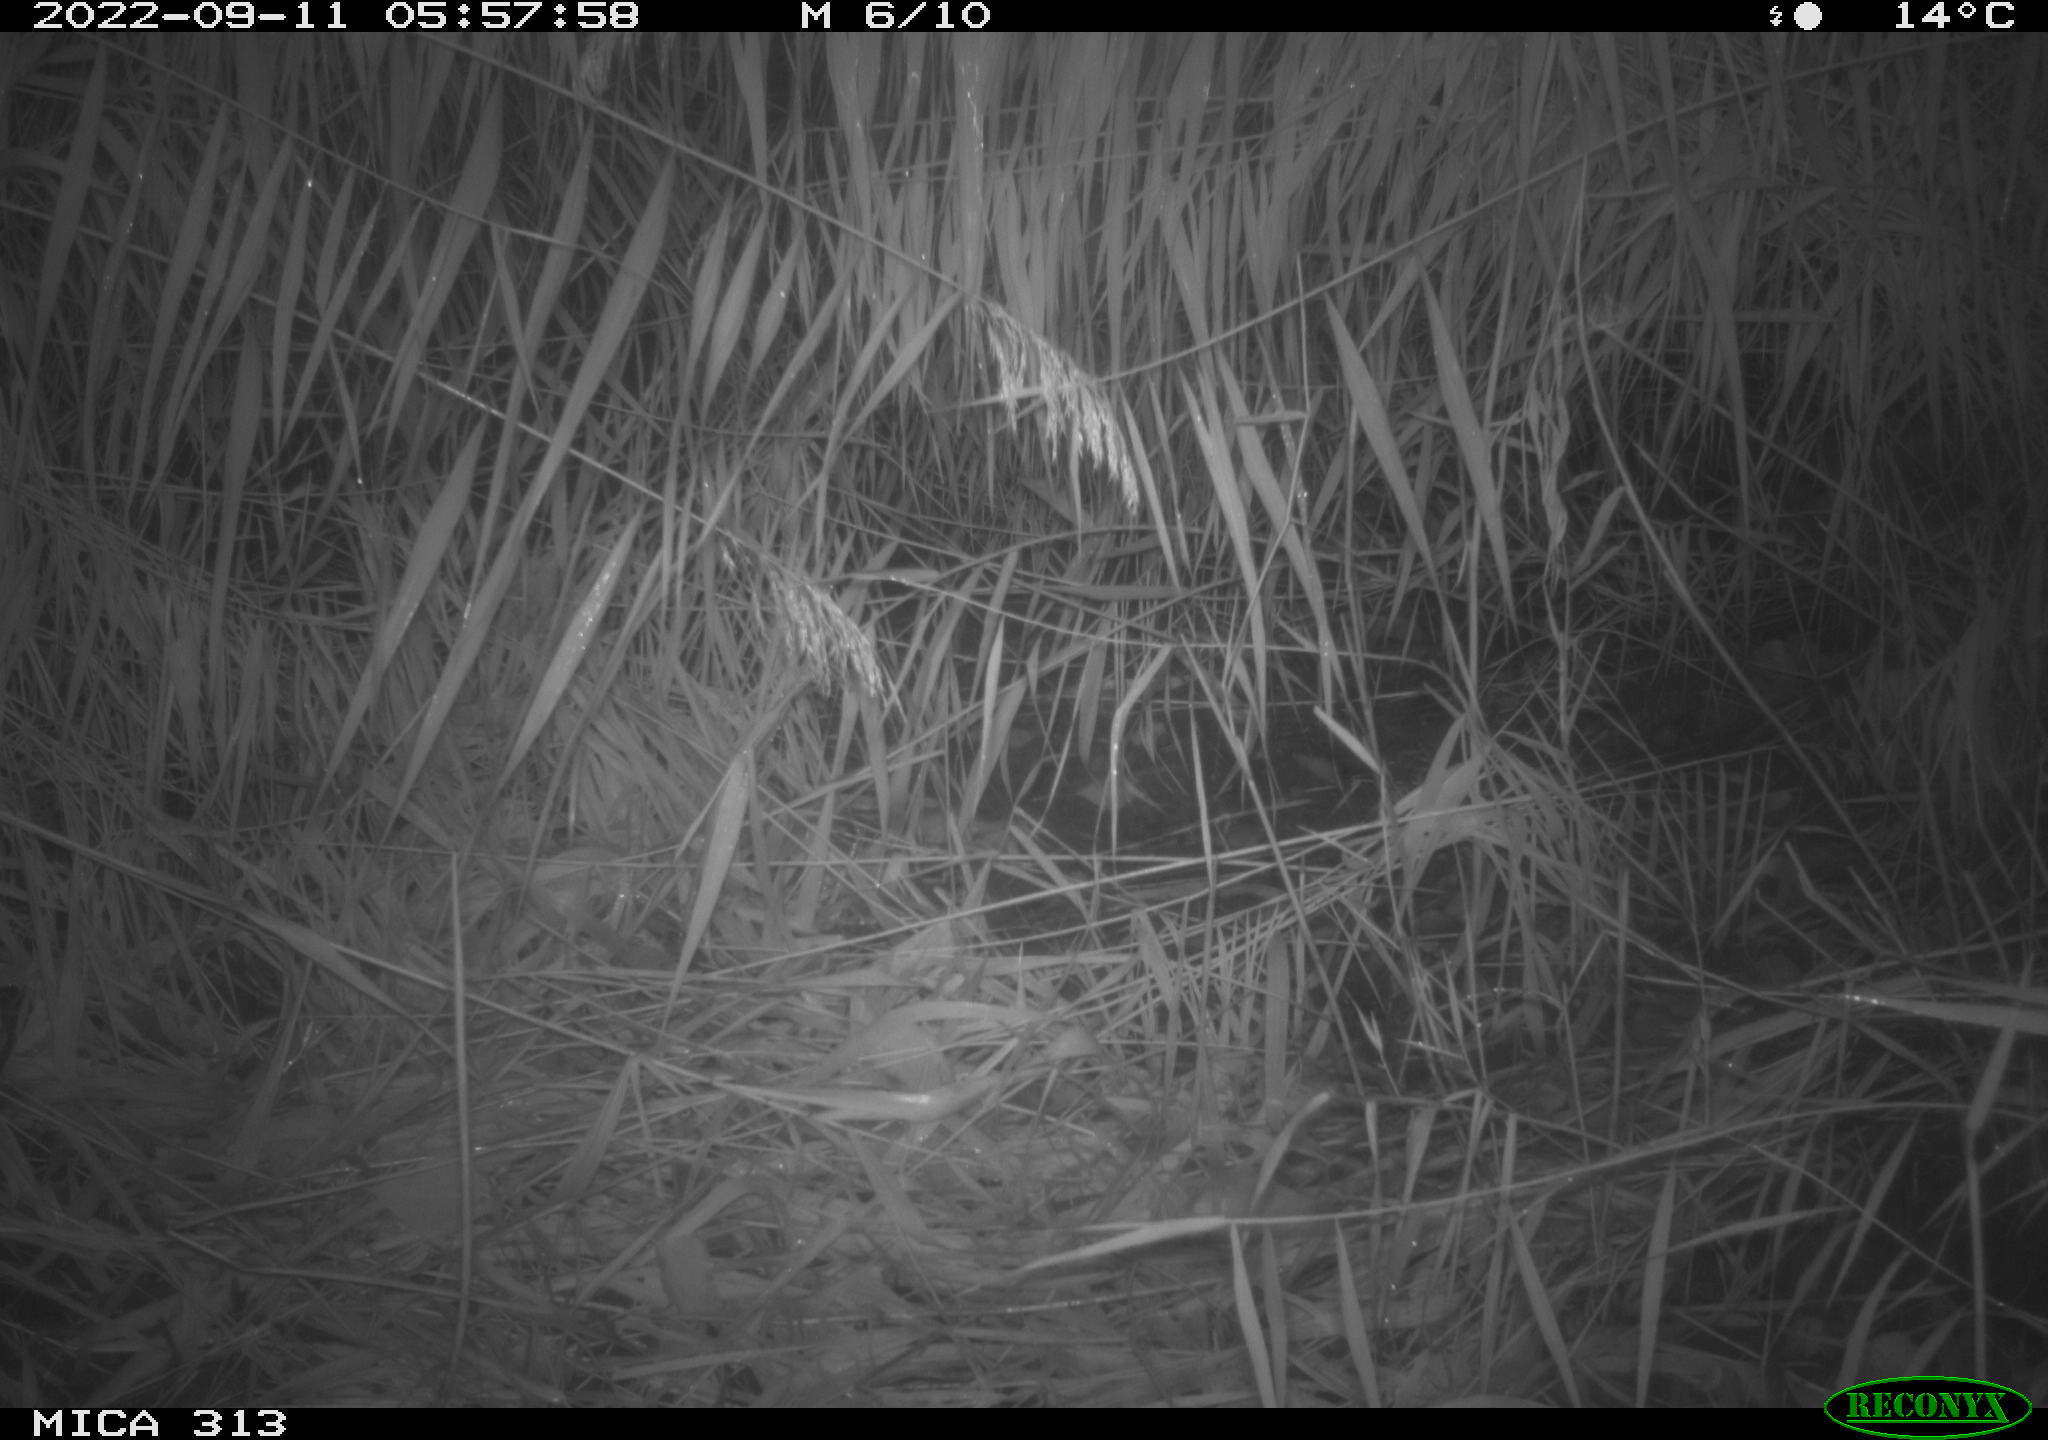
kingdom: Animalia
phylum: Chordata
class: Mammalia
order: Rodentia
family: Muridae
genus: Rattus
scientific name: Rattus norvegicus
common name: Brown rat
